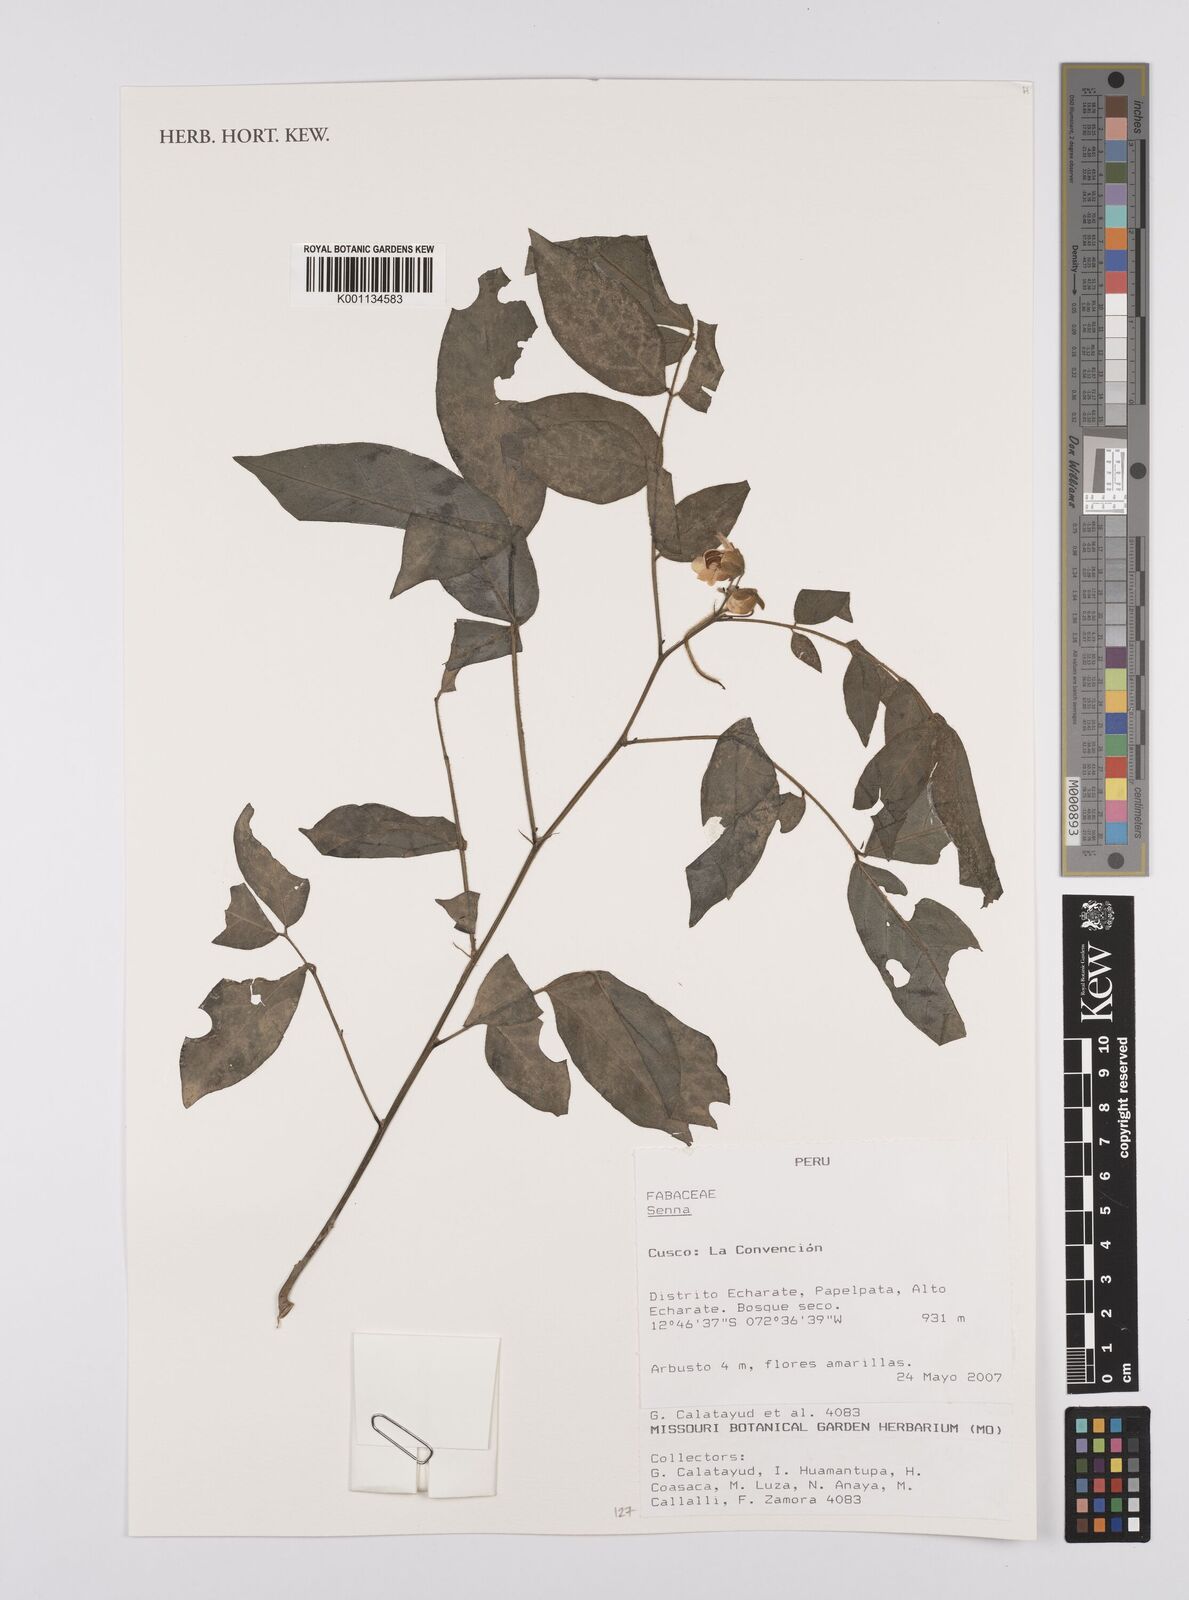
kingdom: Plantae
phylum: Tracheophyta
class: Magnoliopsida
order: Fabales
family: Fabaceae
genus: Senna
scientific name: Senna
